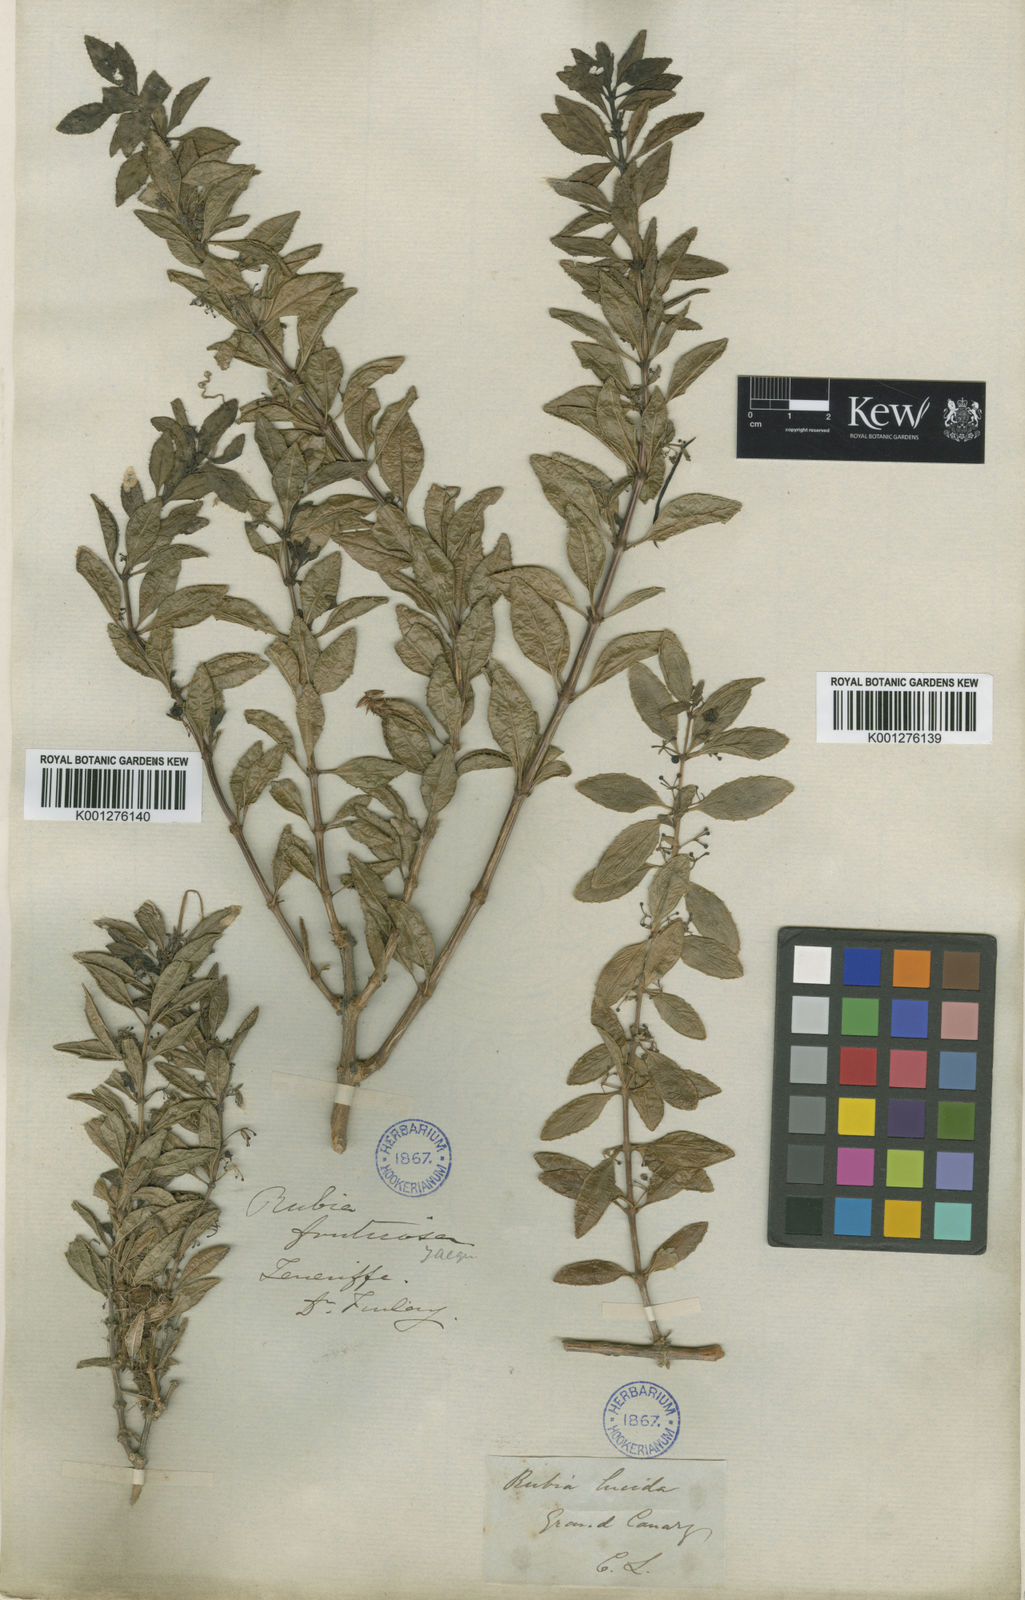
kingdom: Plantae
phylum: Tracheophyta
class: Magnoliopsida
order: Gentianales
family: Rubiaceae
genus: Rubia
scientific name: Rubia fruticosa
